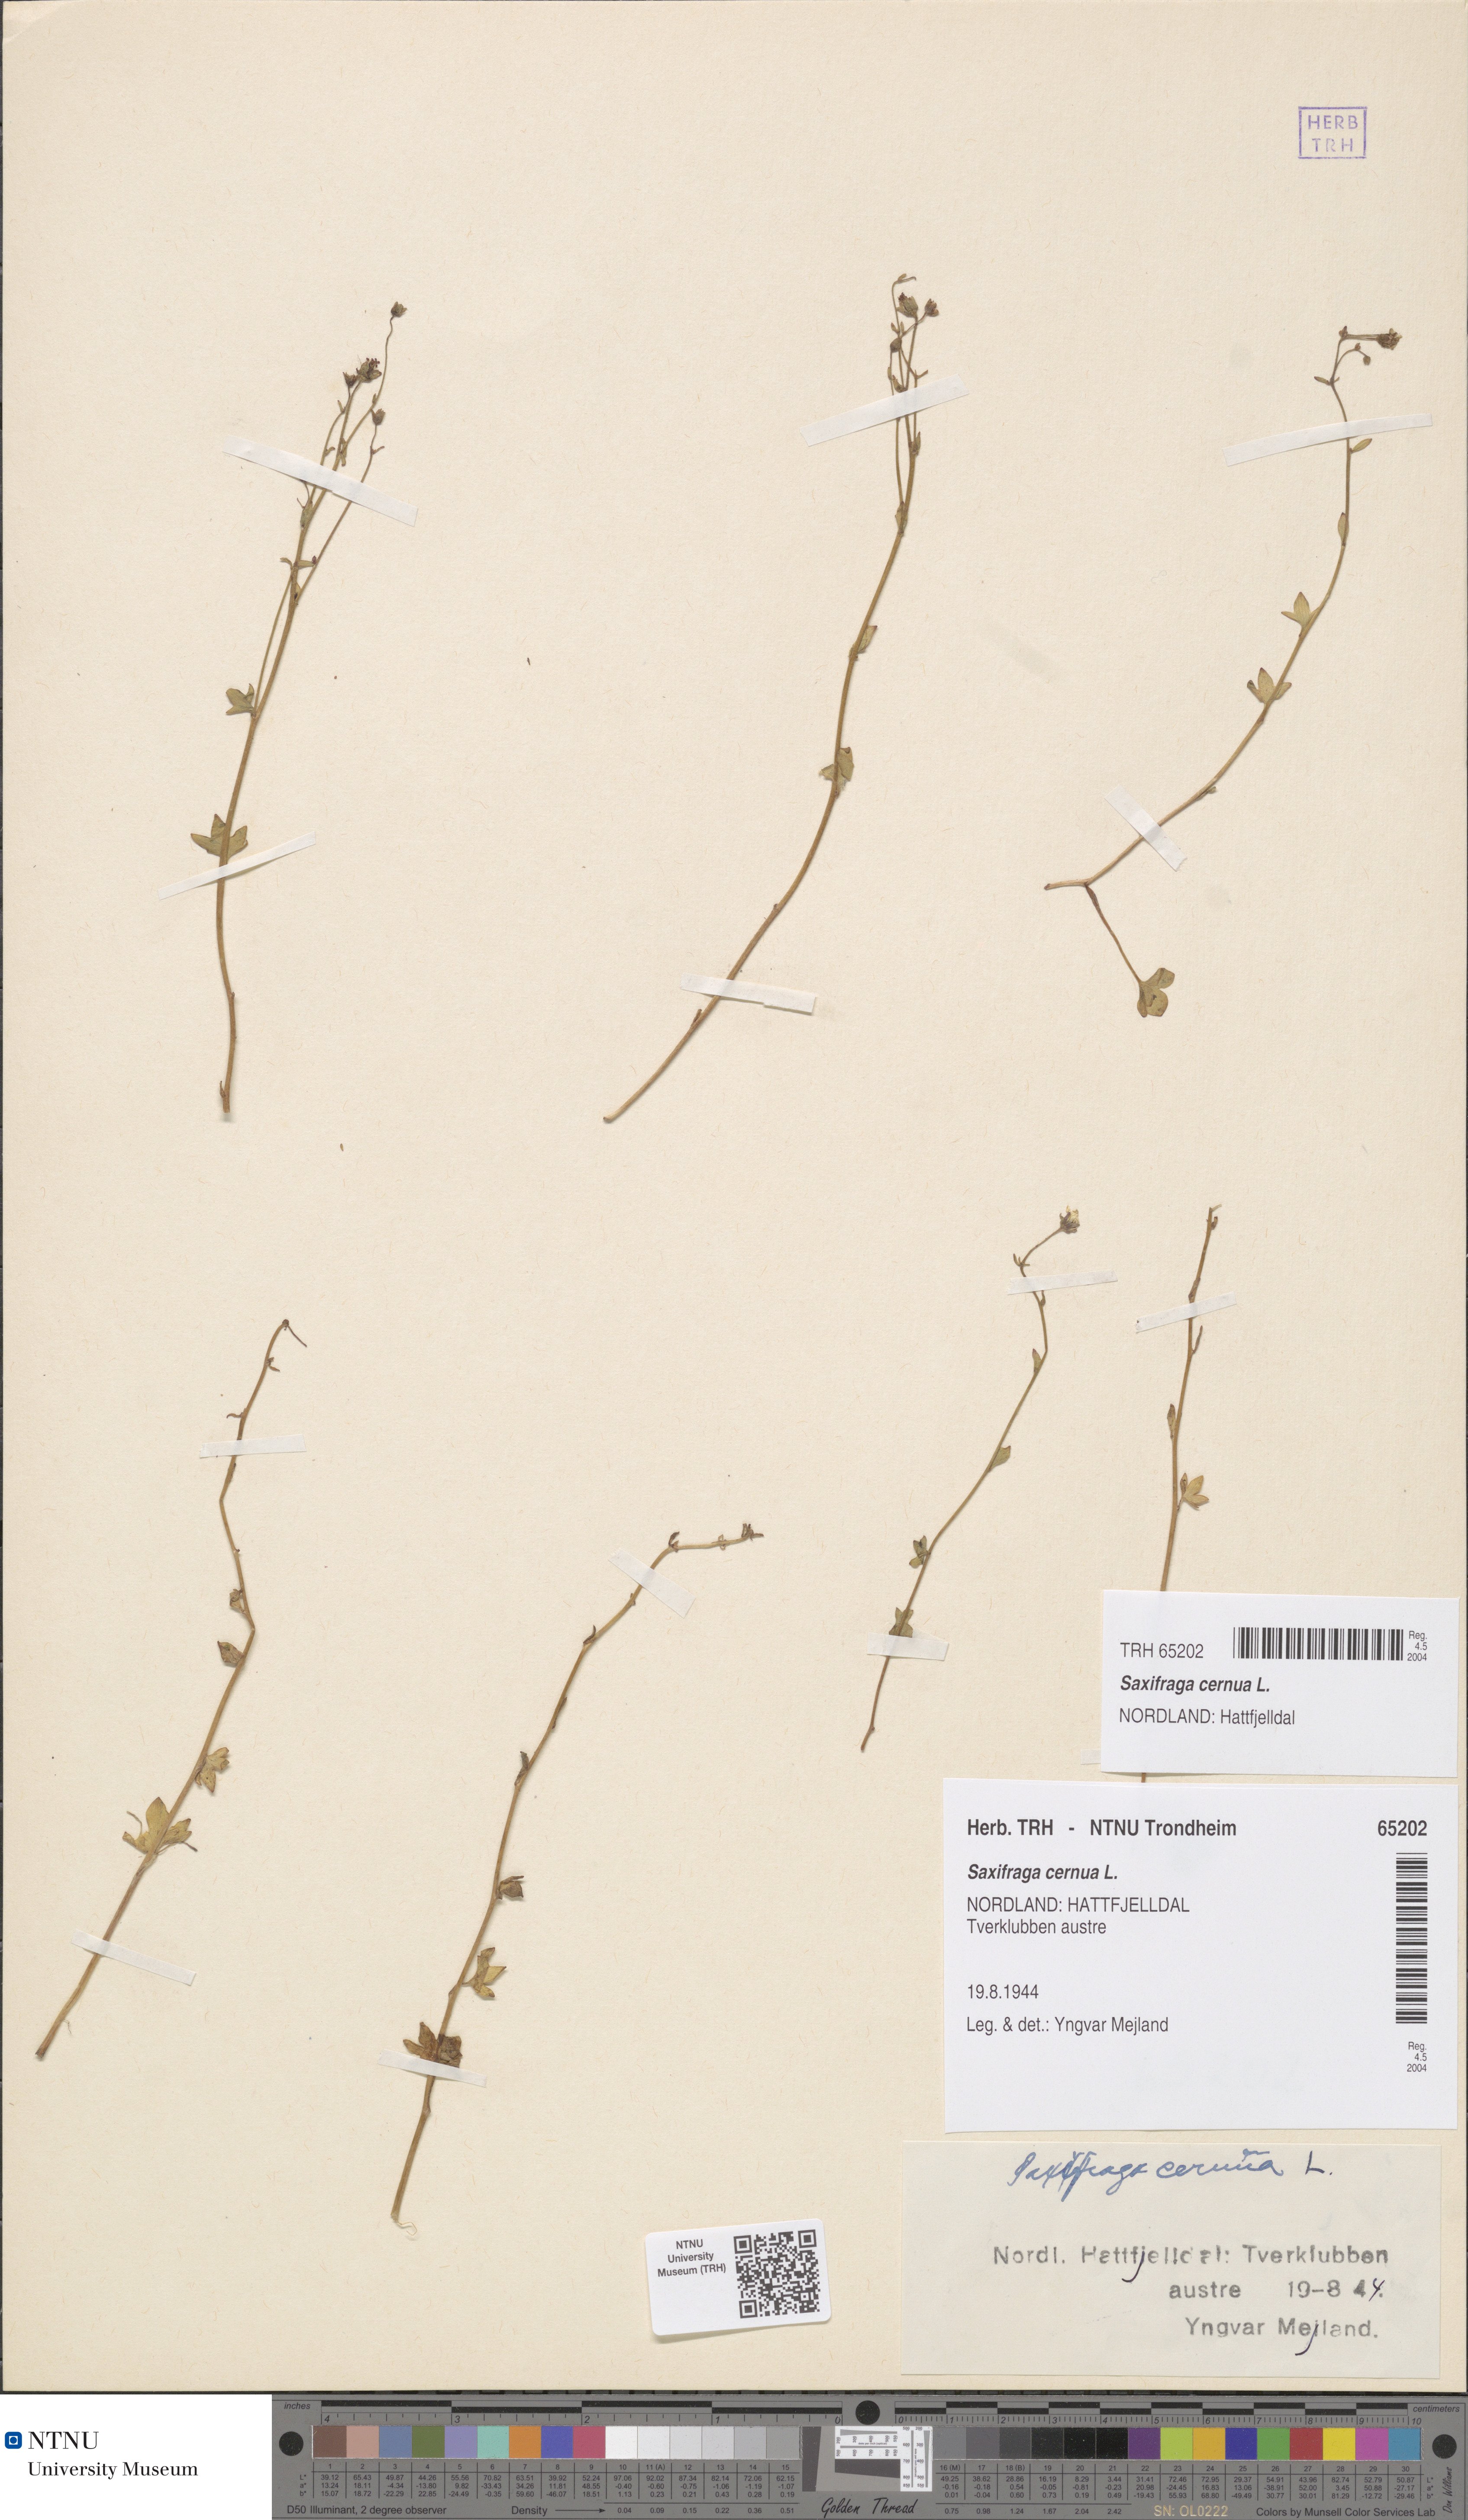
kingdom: Plantae
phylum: Tracheophyta
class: Magnoliopsida
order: Saxifragales
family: Saxifragaceae
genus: Saxifraga
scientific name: Saxifraga cernua
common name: Drooping saxifrage
